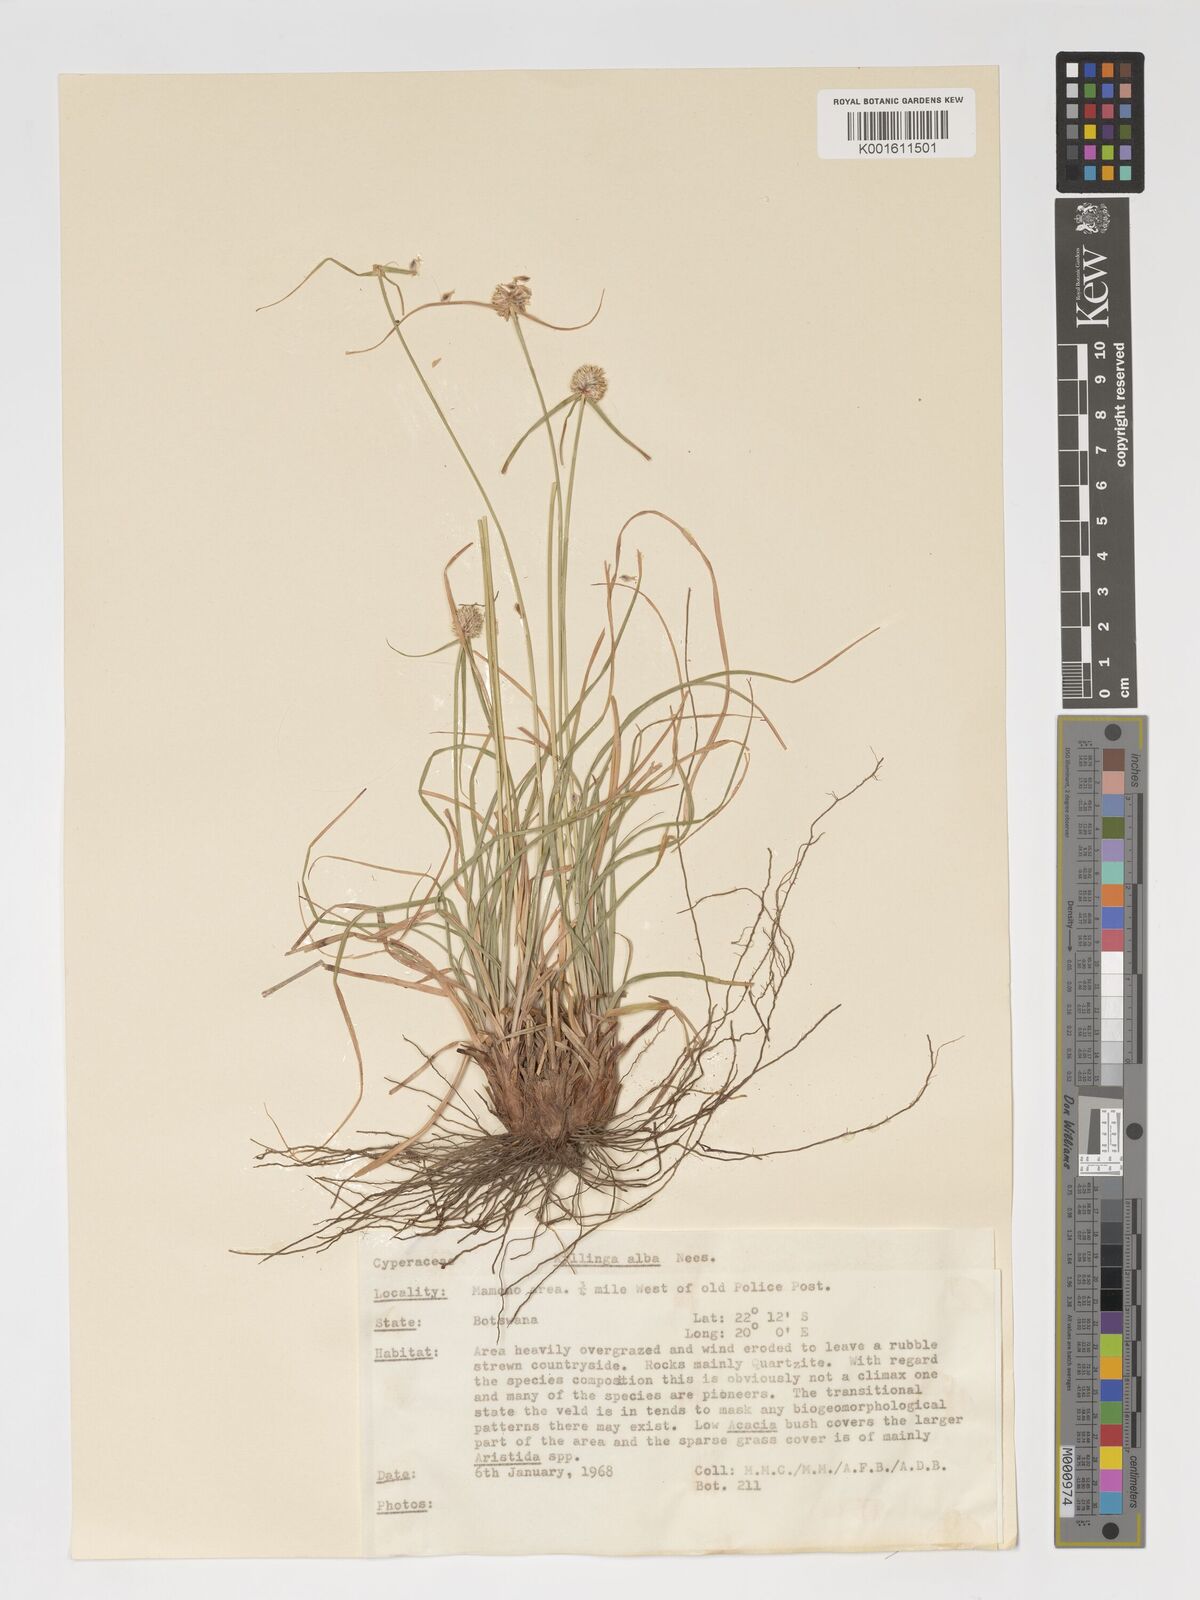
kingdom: Plantae
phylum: Tracheophyta
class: Liliopsida
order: Poales
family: Cyperaceae
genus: Cyperus
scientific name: Cyperus alatus
